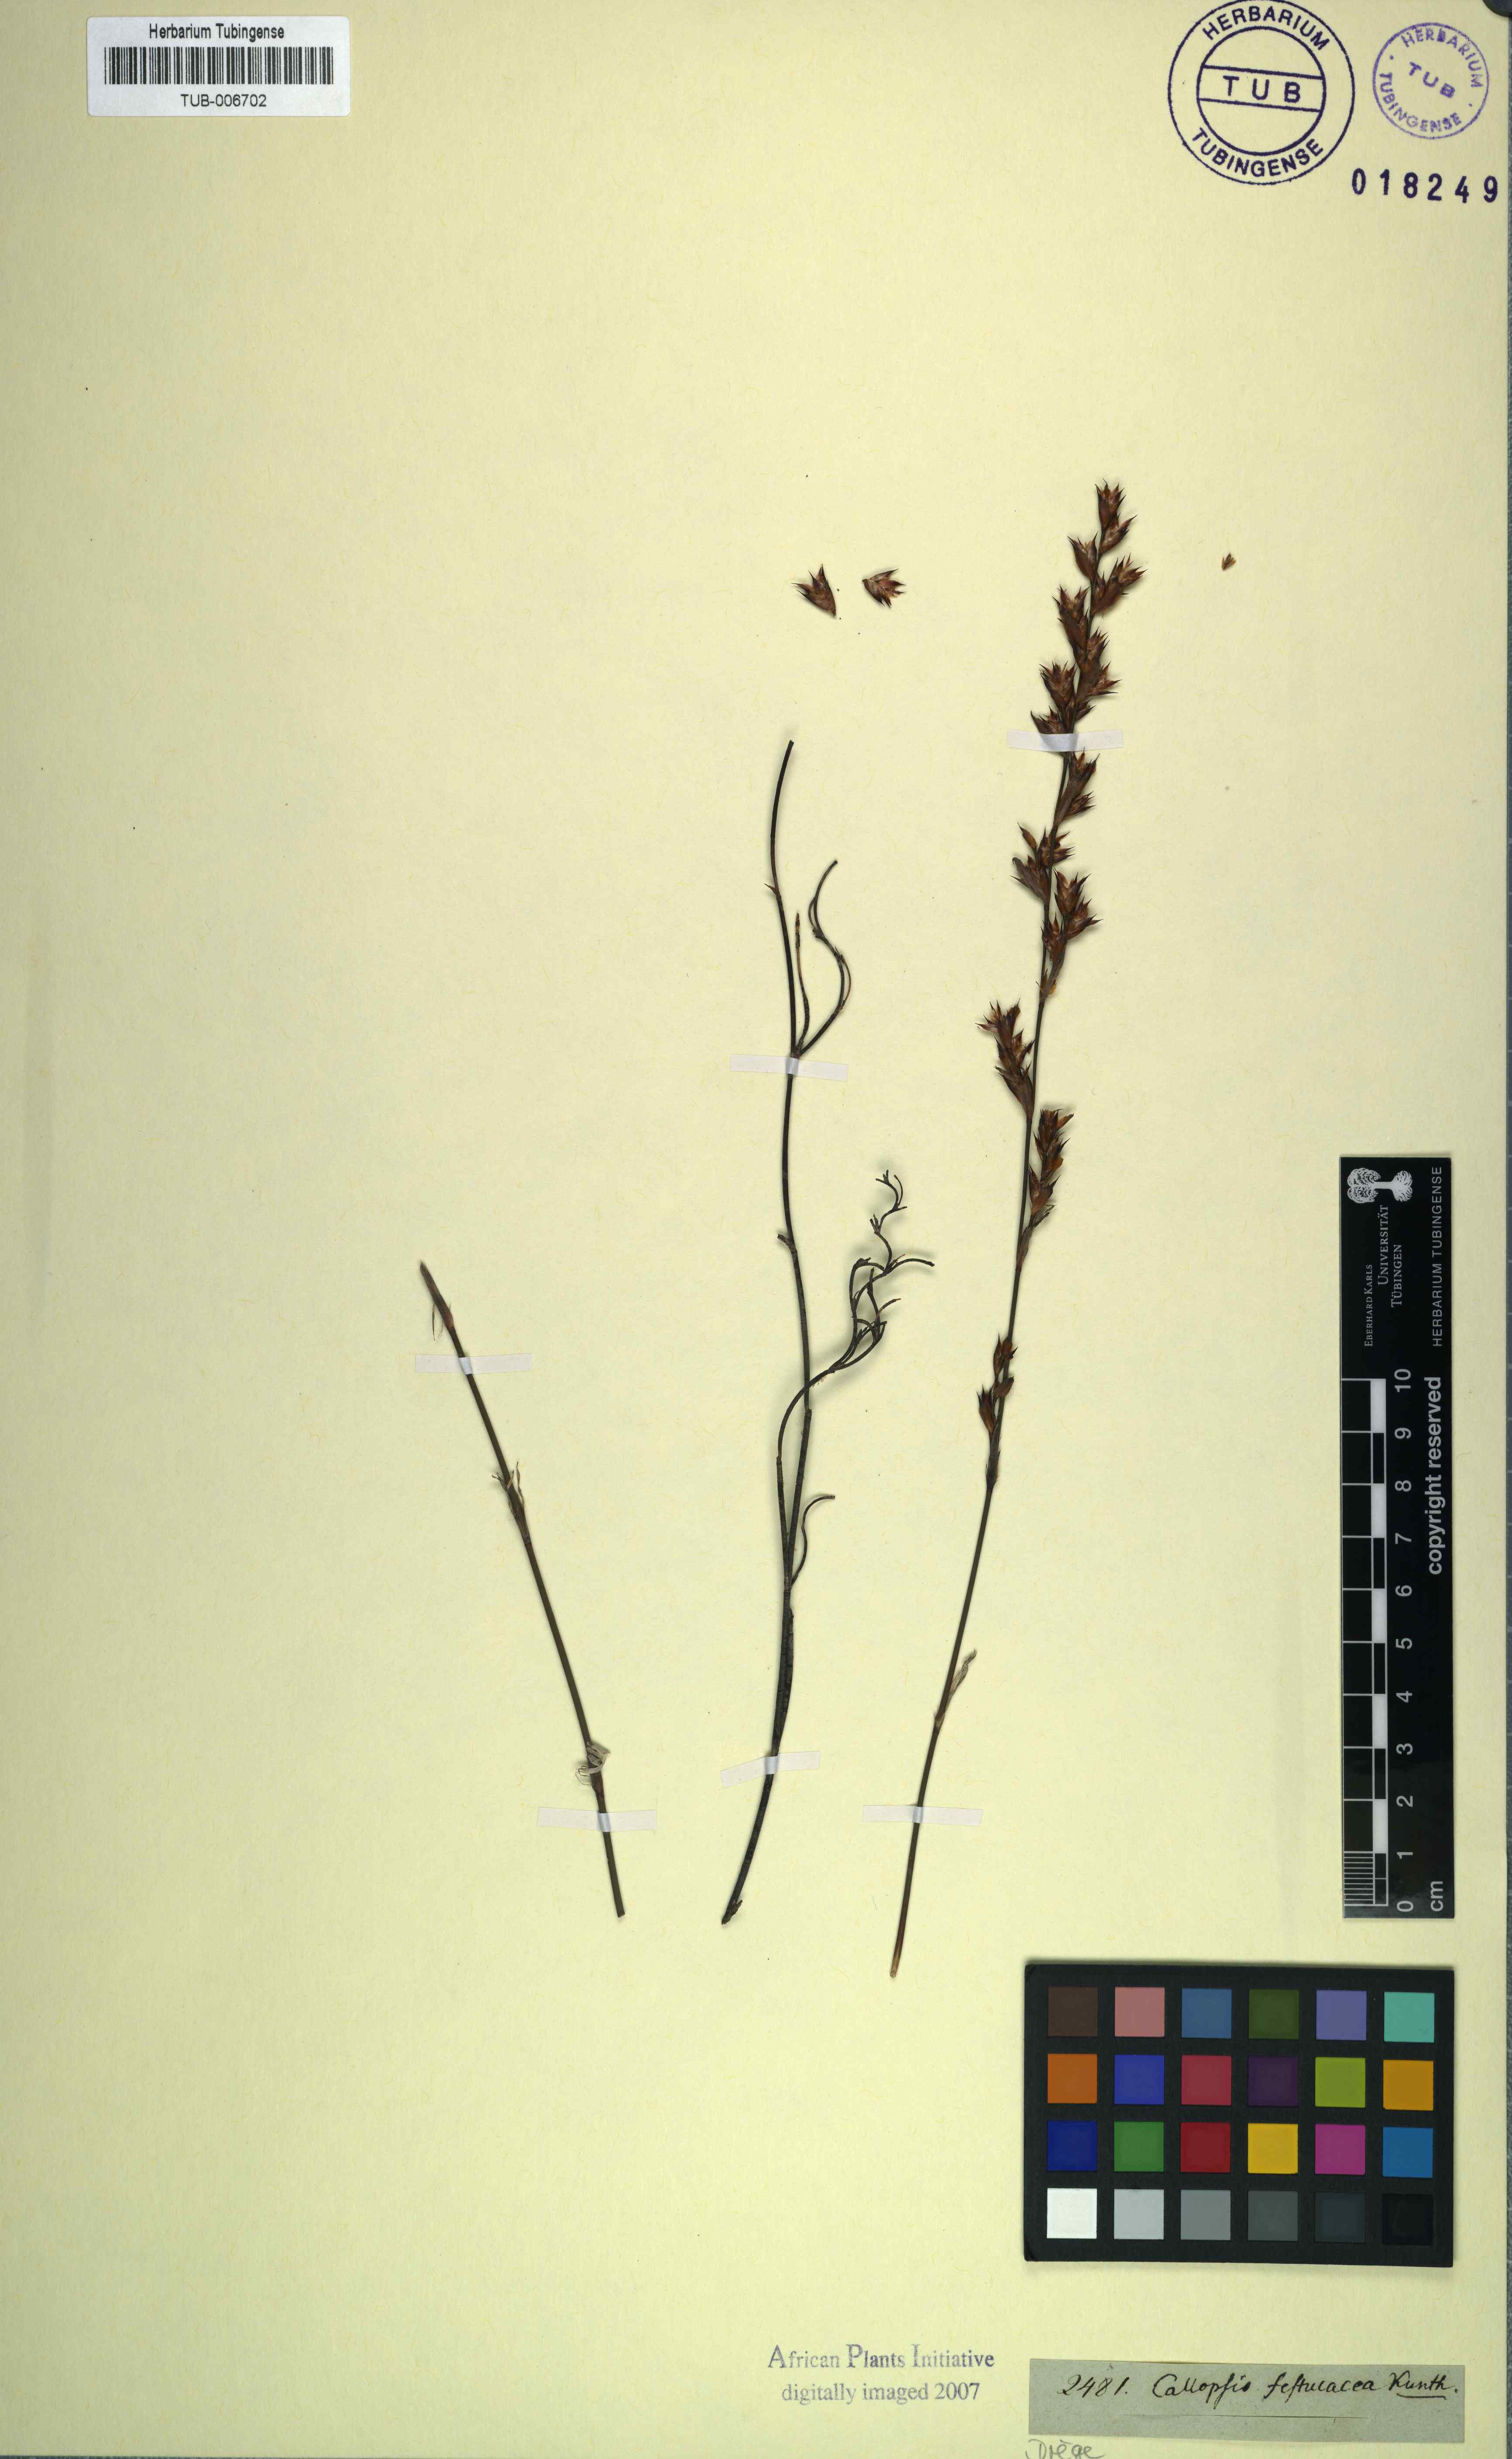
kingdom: Plantae
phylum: Tracheophyta
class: Liliopsida
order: Poales
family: Restionaceae
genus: Willdenowia
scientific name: Willdenowia incurvata
